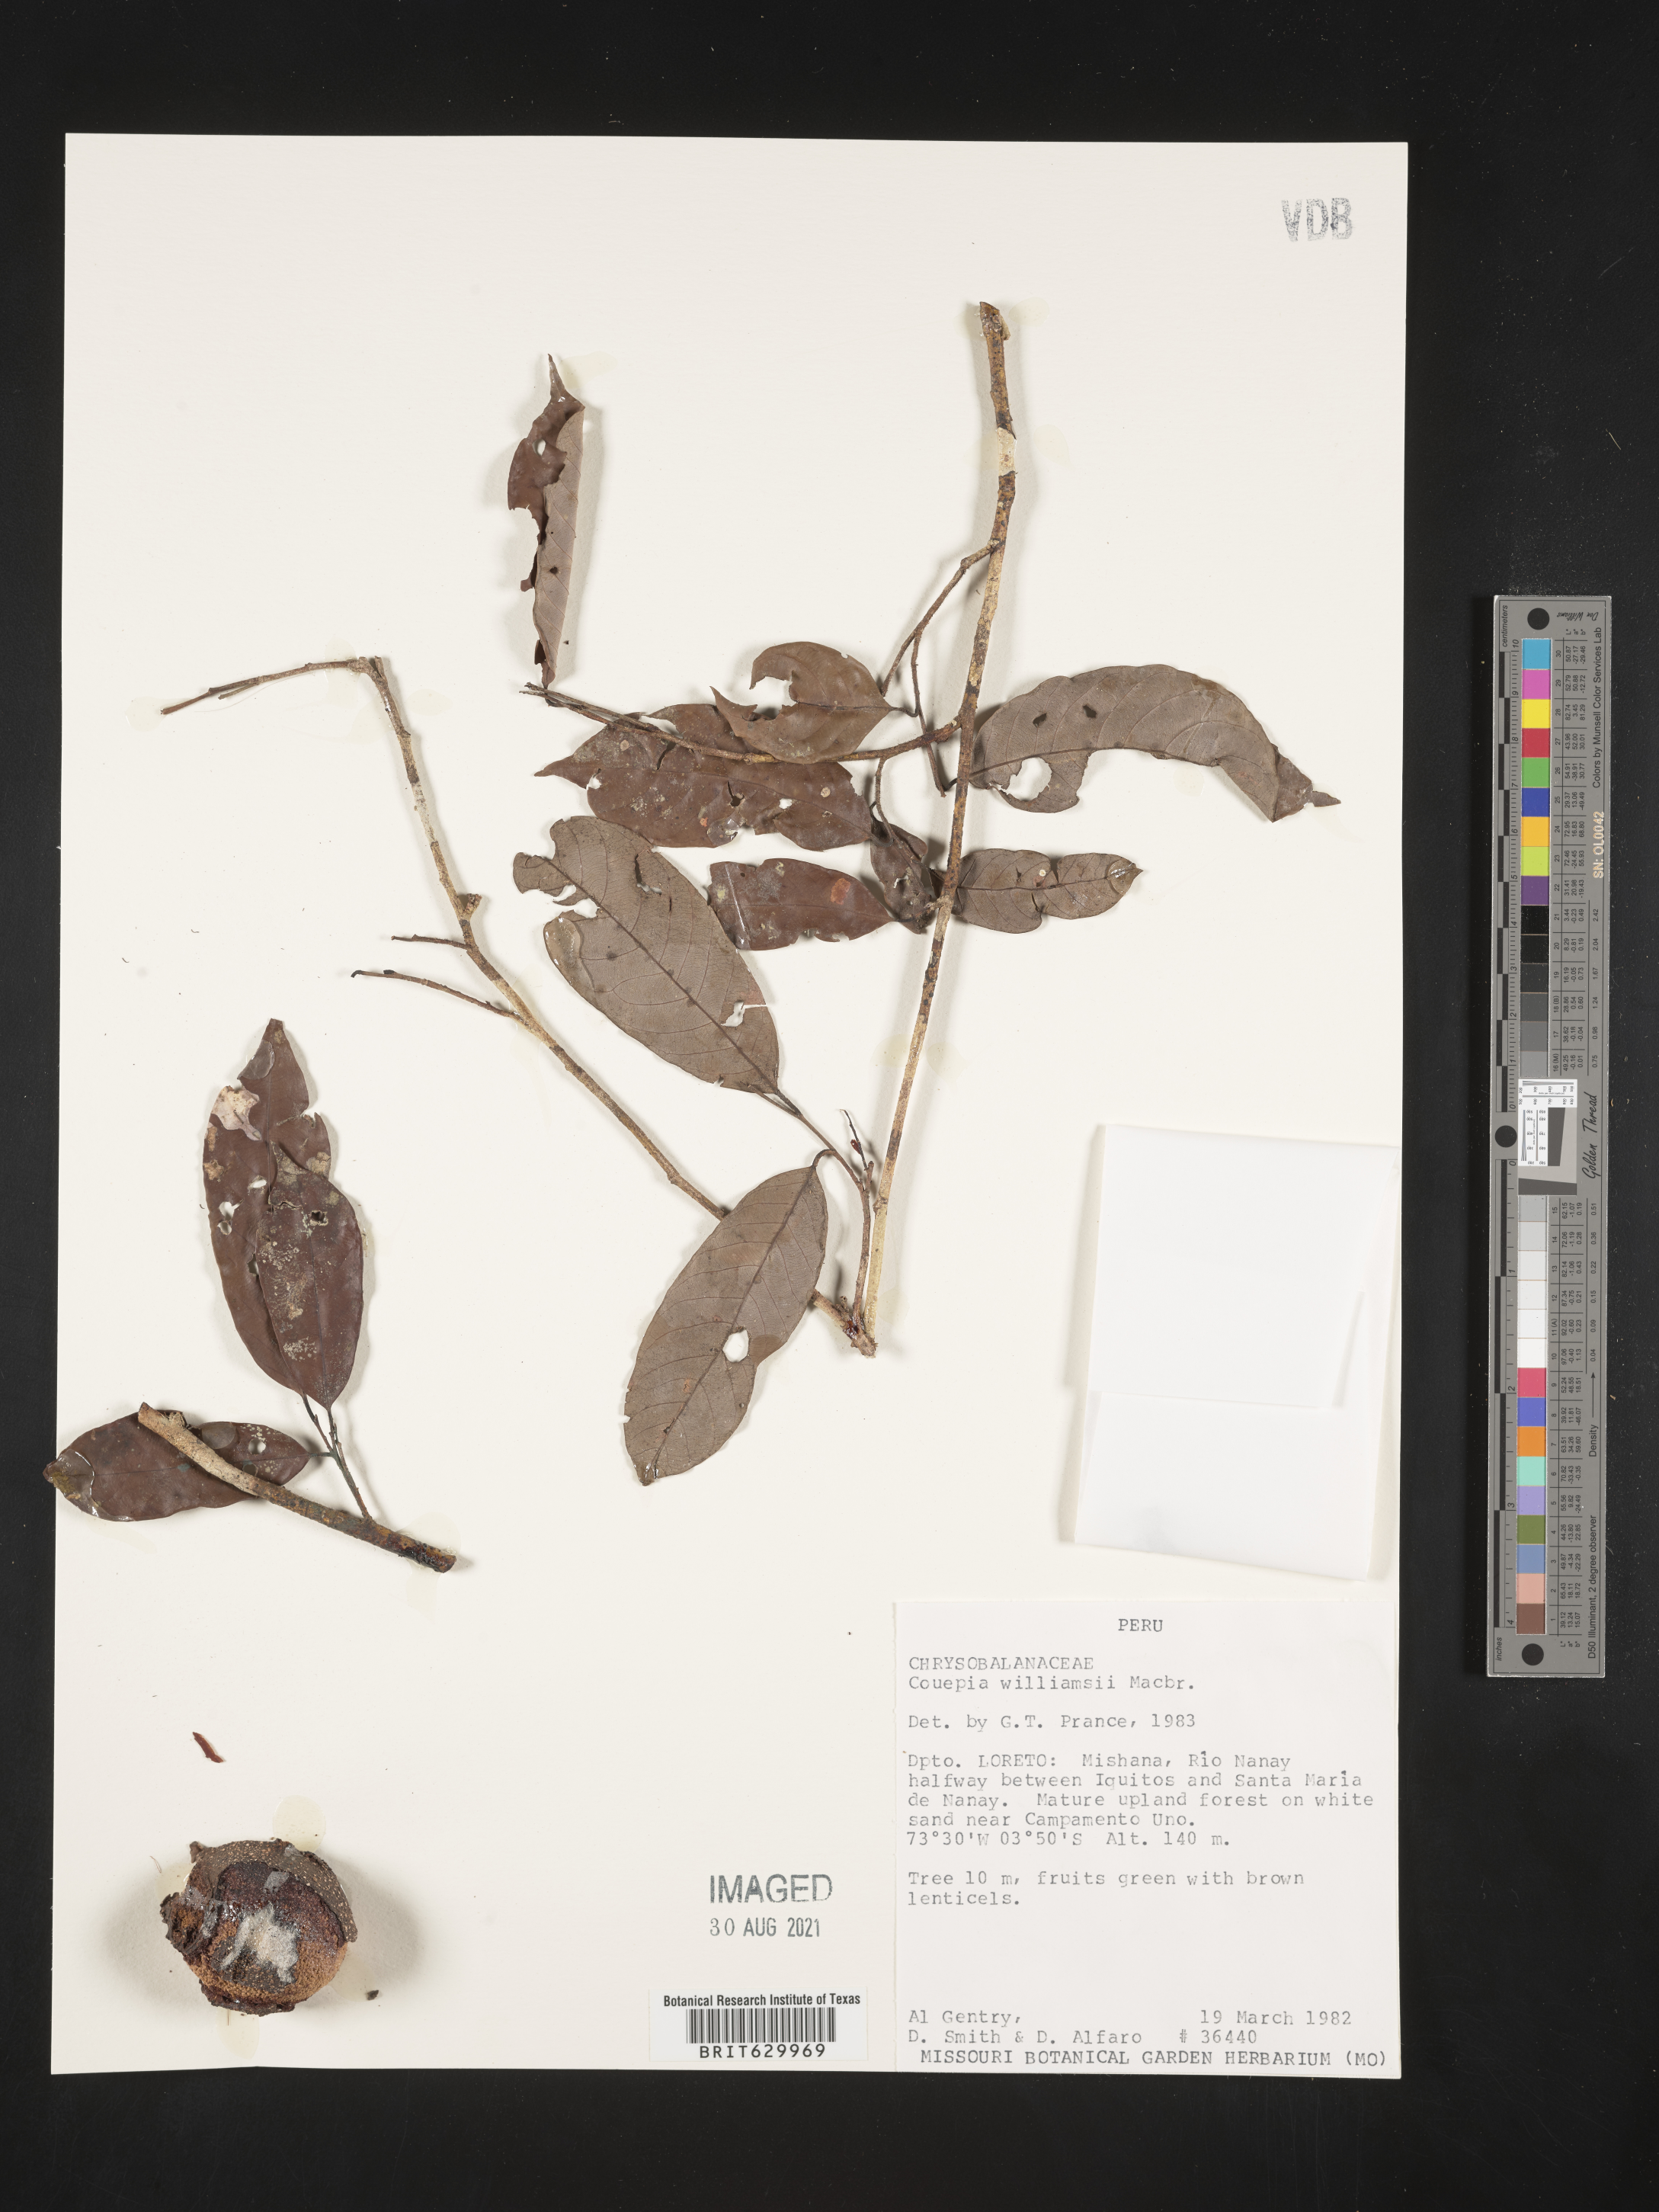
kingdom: Plantae
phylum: Tracheophyta
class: Magnoliopsida
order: Malpighiales
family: Chrysobalanaceae
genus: Couepia
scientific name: Couepia williamsii
